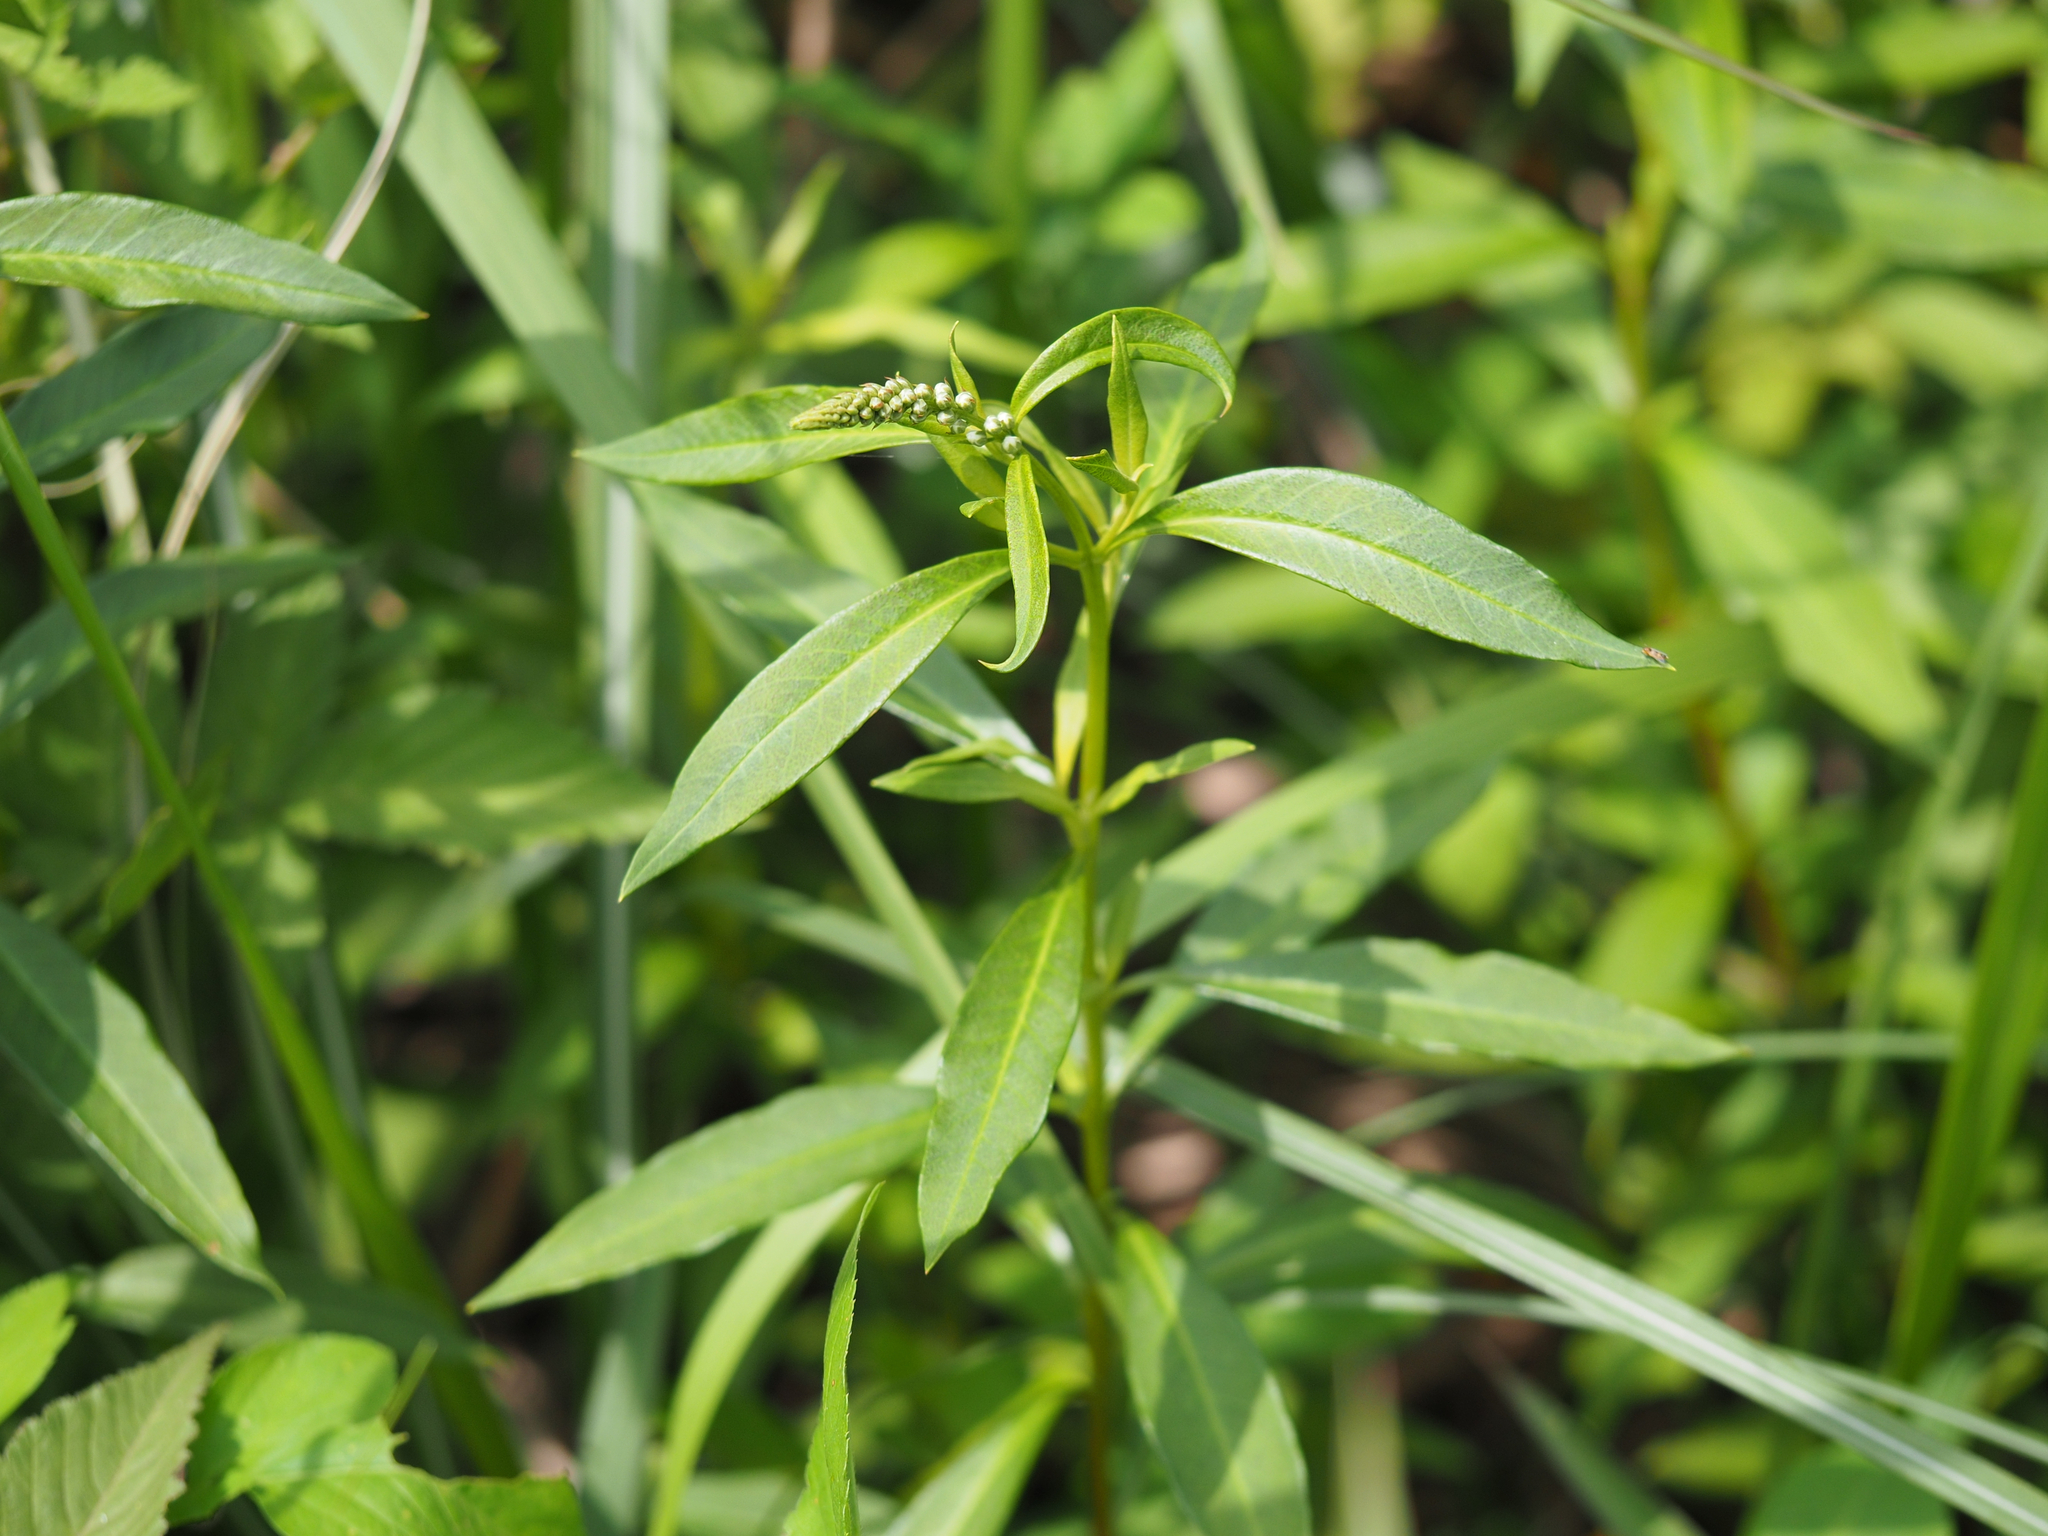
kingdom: Plantae
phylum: Tracheophyta
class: Magnoliopsida
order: Ericales
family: Primulaceae
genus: Lysimachia
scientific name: Lysimachia fortunei
